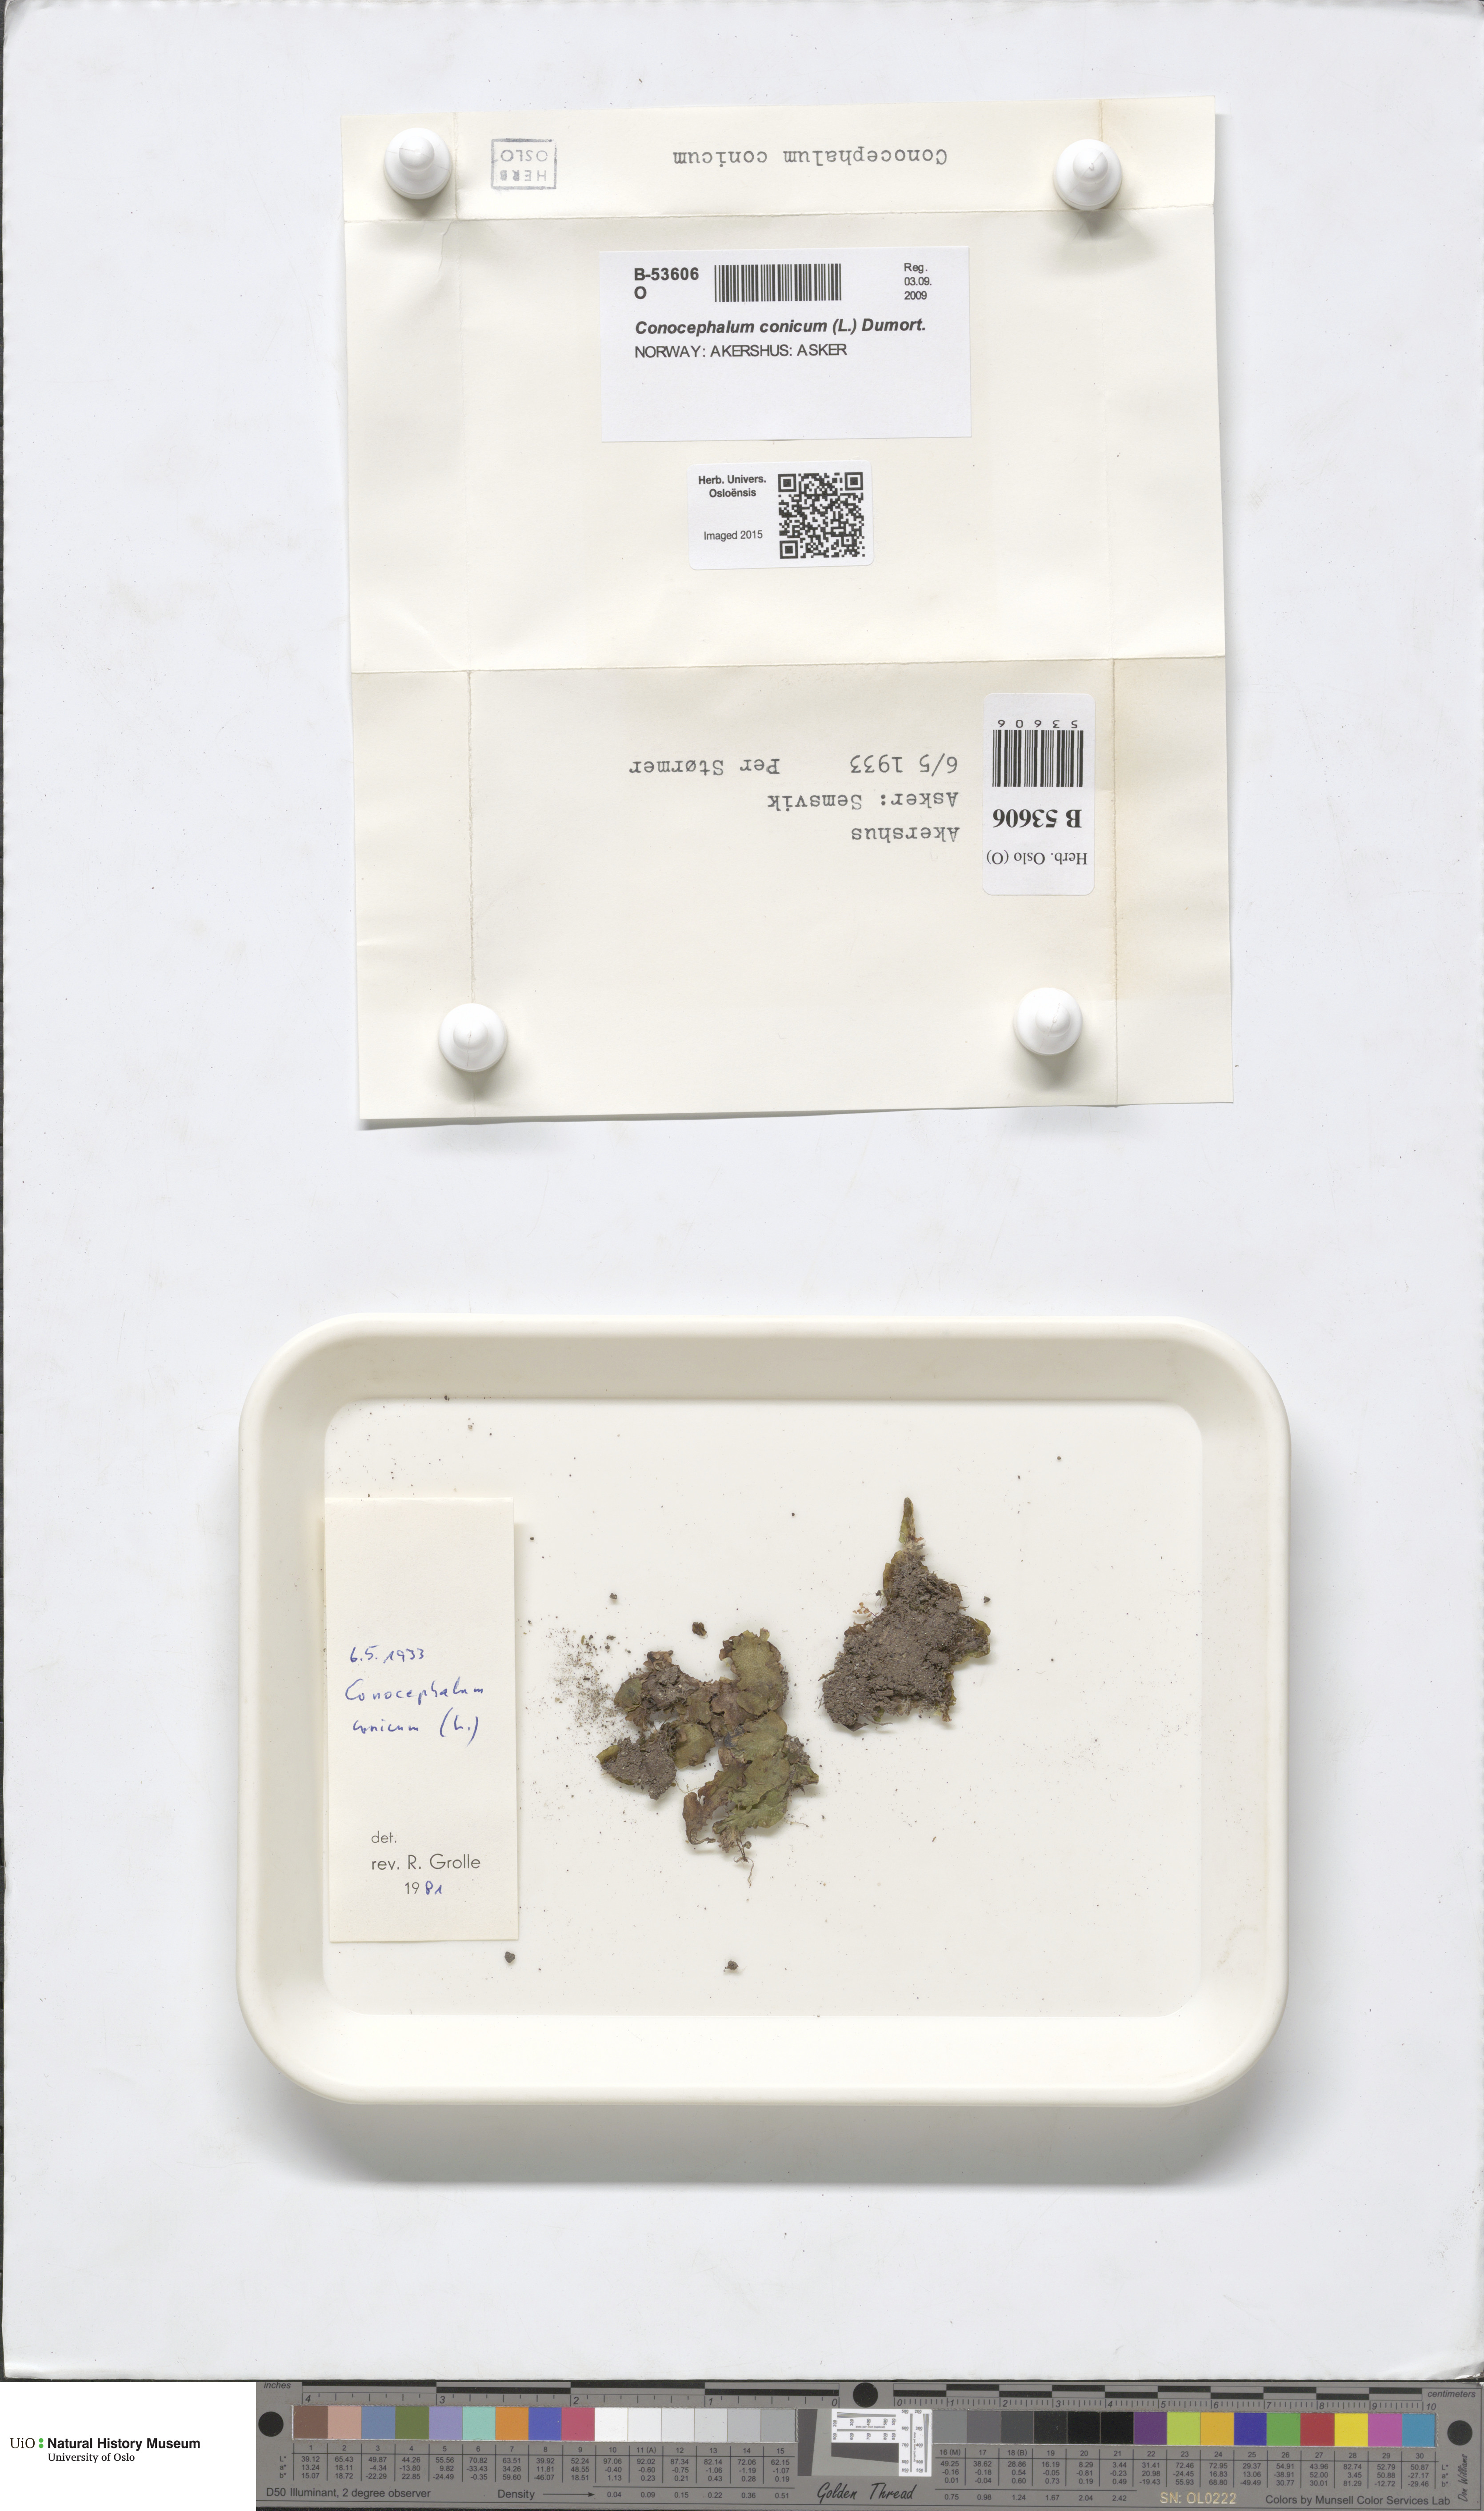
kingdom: Plantae
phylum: Marchantiophyta
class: Marchantiopsida
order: Marchantiales
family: Conocephalaceae
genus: Conocephalum
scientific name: Conocephalum conicum
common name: Great scented liverwort
